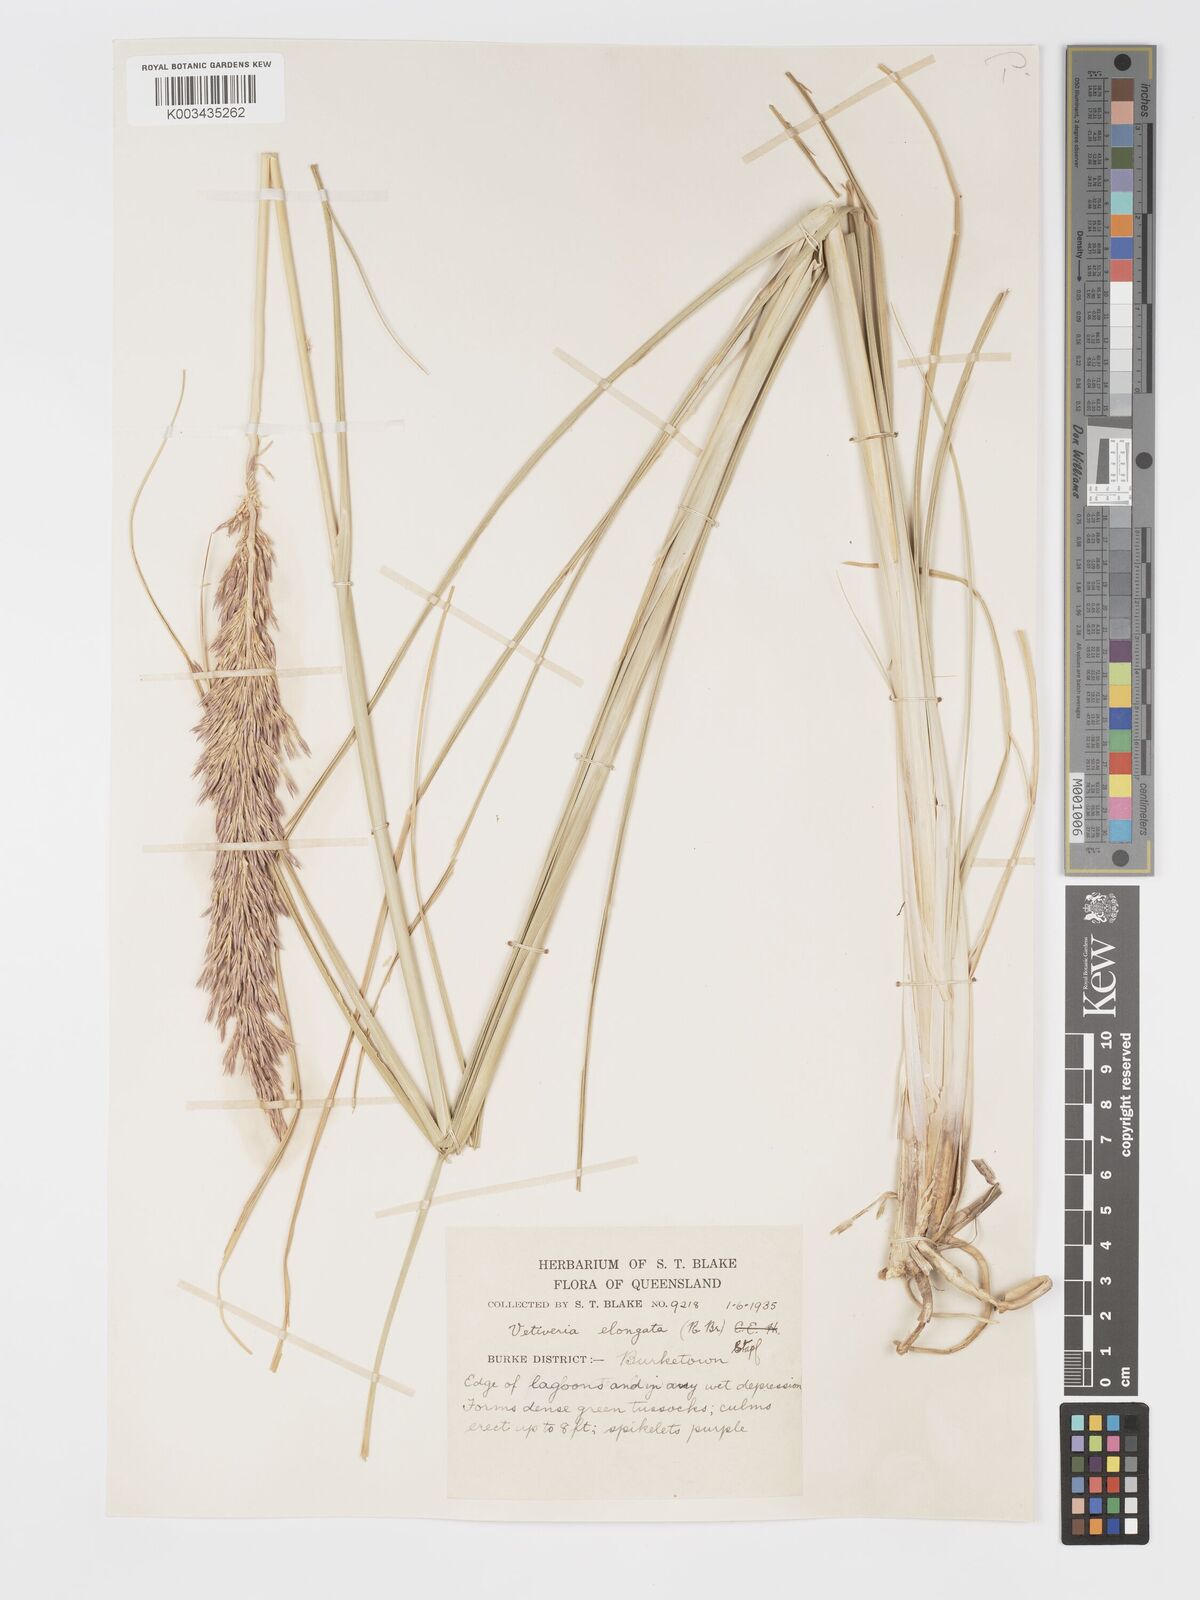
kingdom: Plantae
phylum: Tracheophyta
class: Liliopsida
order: Poales
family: Poaceae
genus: Chrysopogon
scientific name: Chrysopogon elongatus
